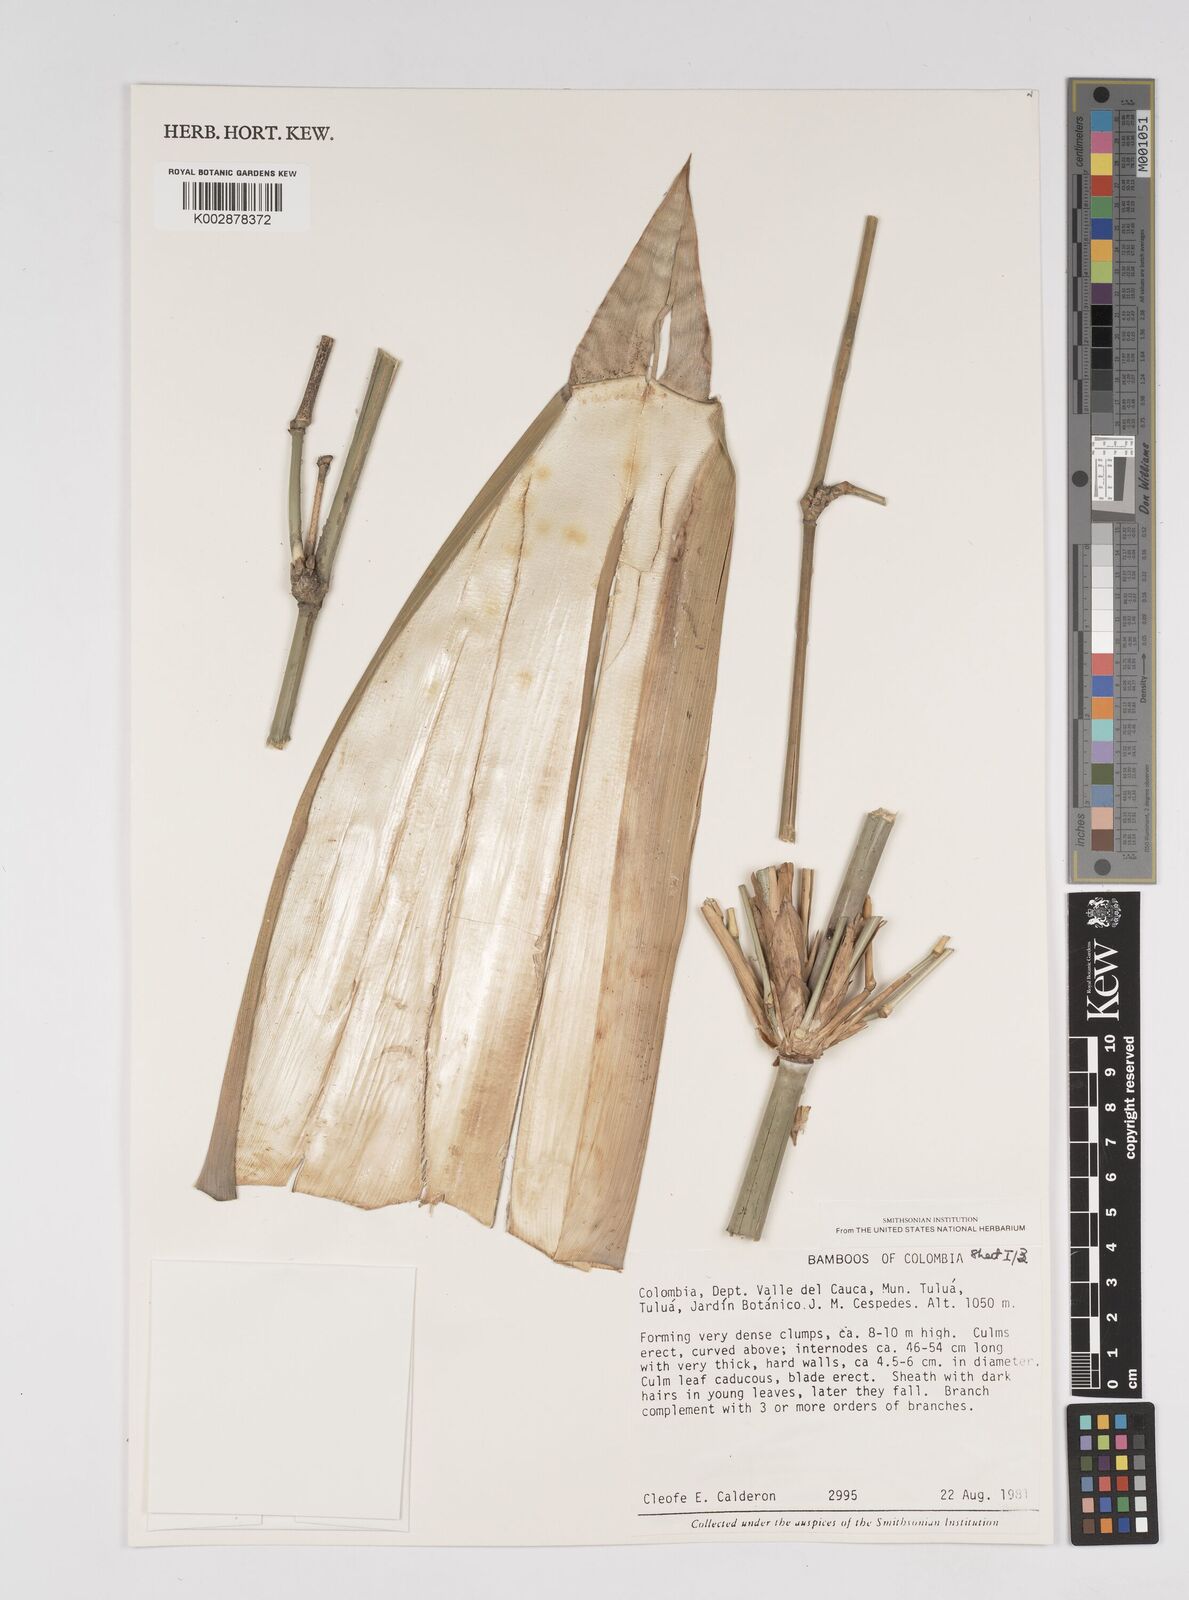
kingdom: Plantae
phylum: Tracheophyta
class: Liliopsida
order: Poales
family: Poaceae
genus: Bambusa
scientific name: Bambusa
